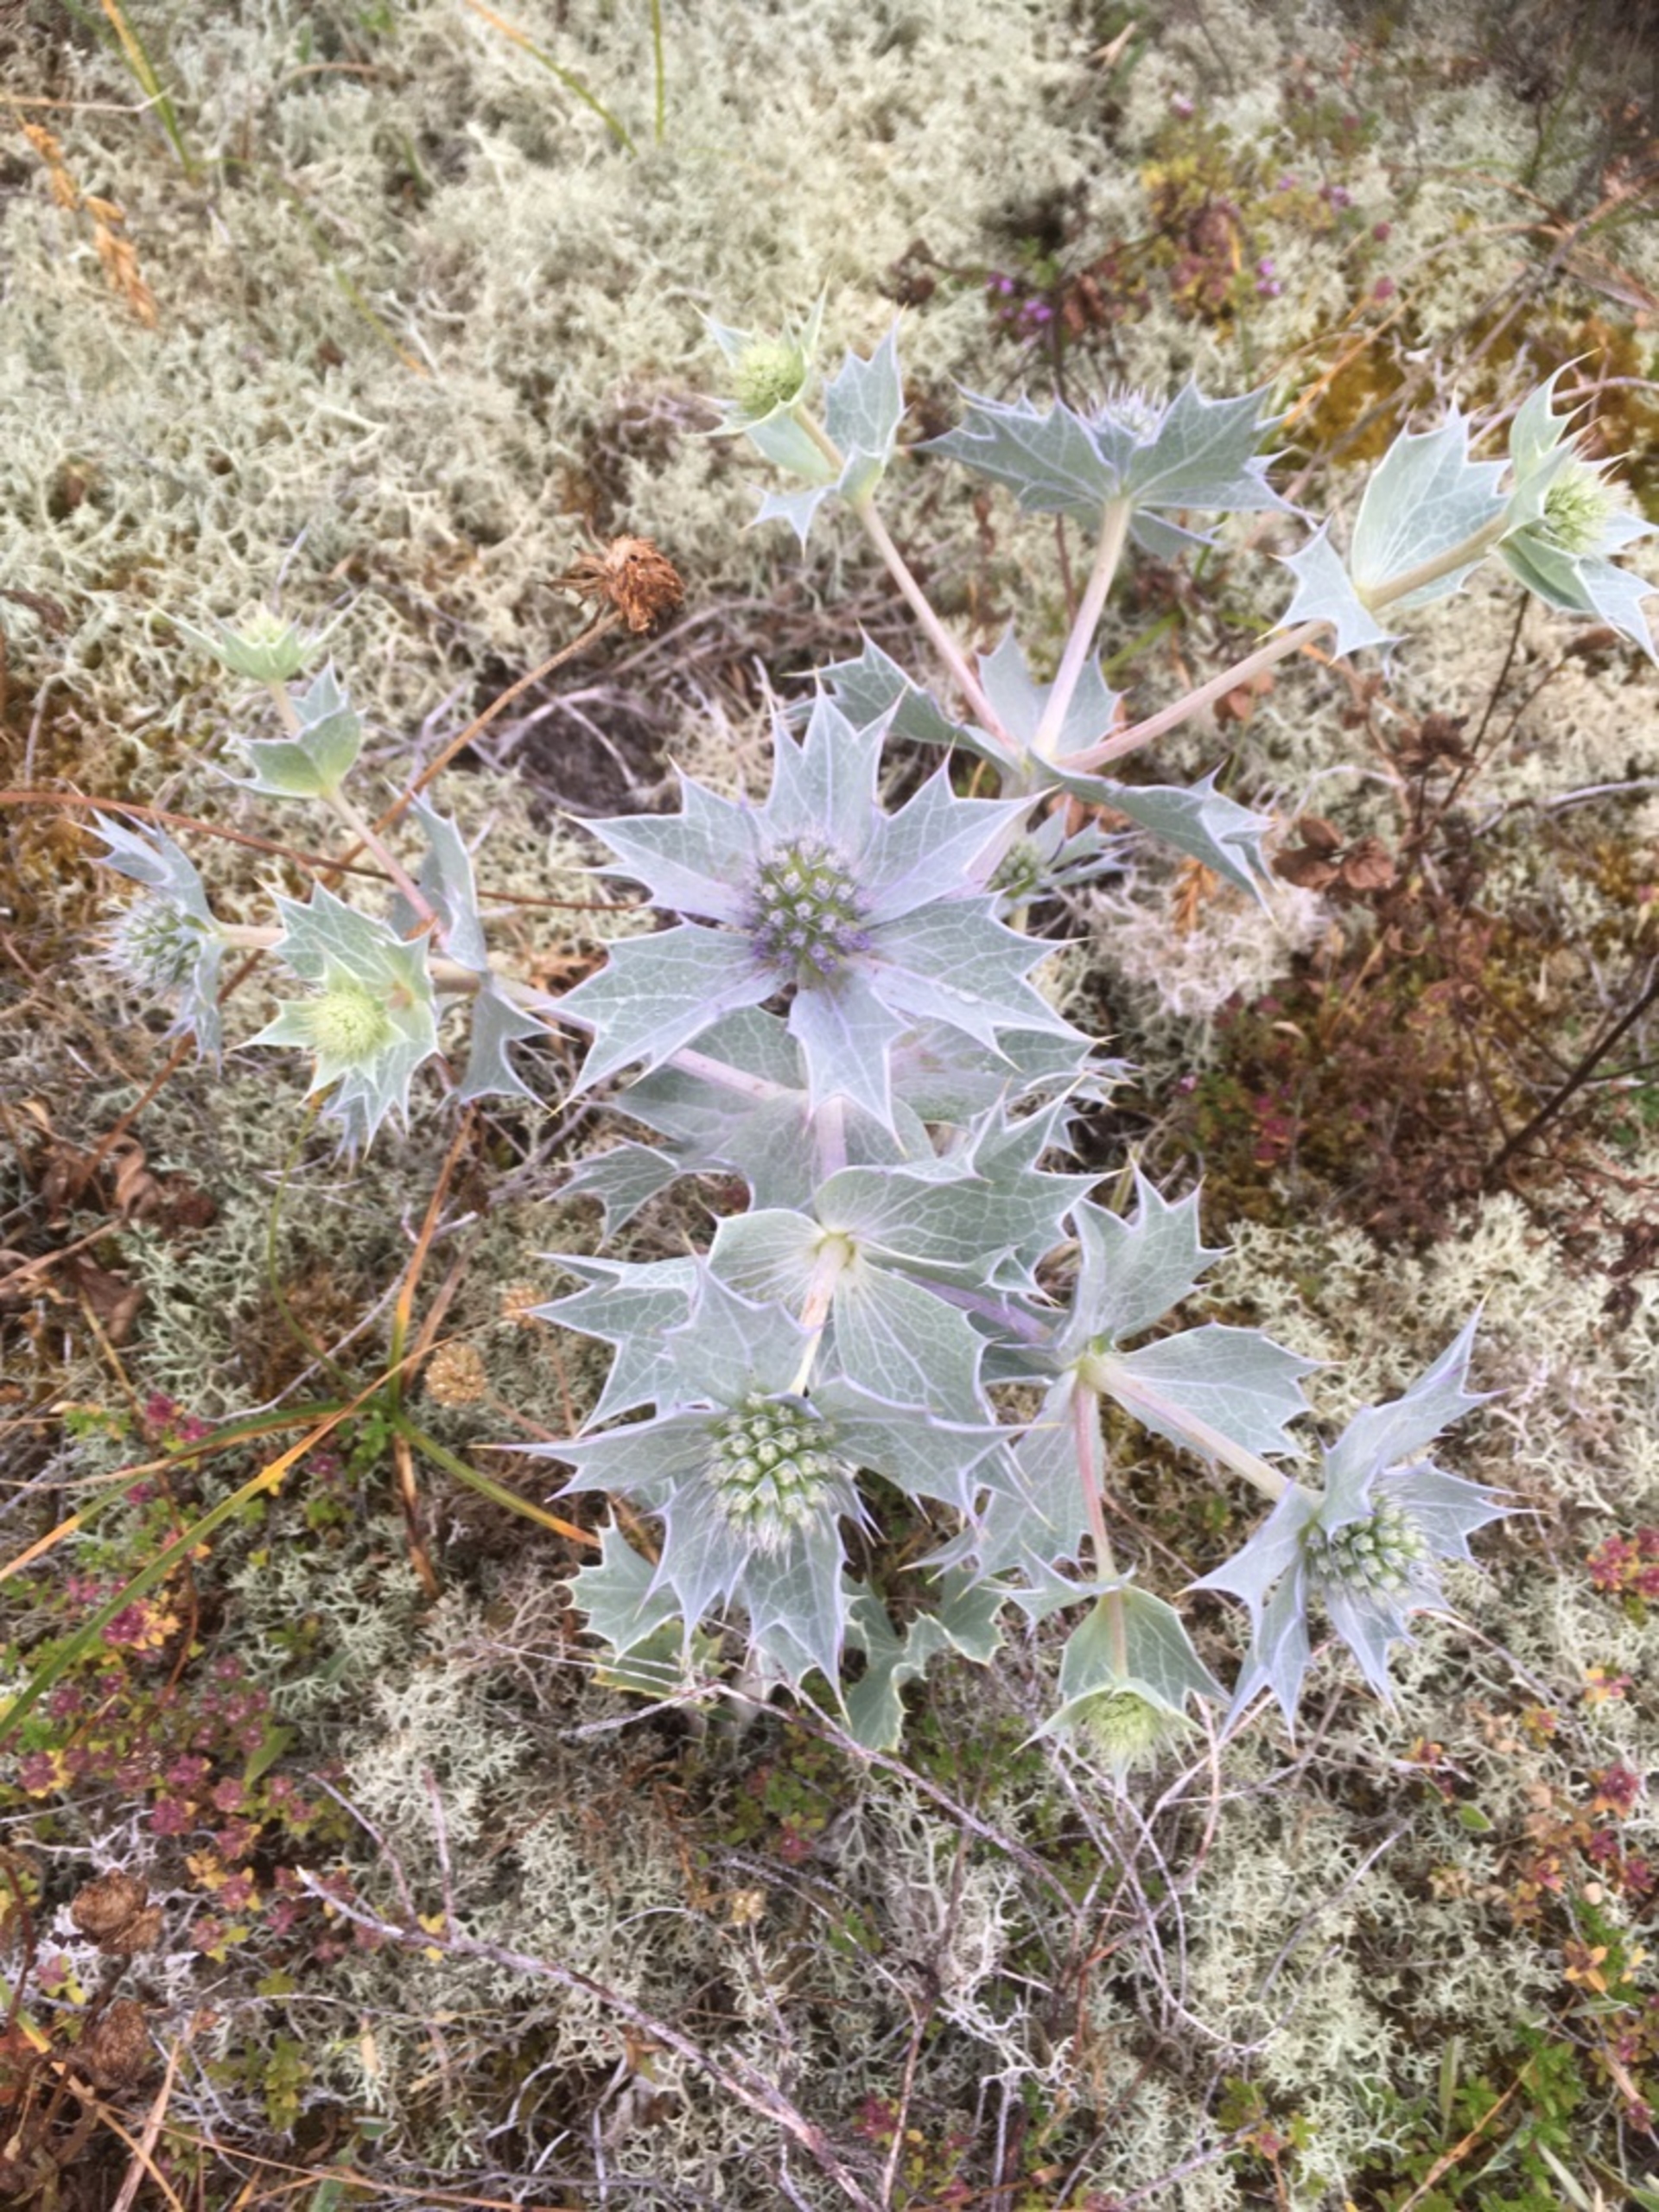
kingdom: Plantae
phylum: Tracheophyta
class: Magnoliopsida
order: Apiales
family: Apiaceae
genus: Eryngium
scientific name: Eryngium maritimum
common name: Strand-mandstro
